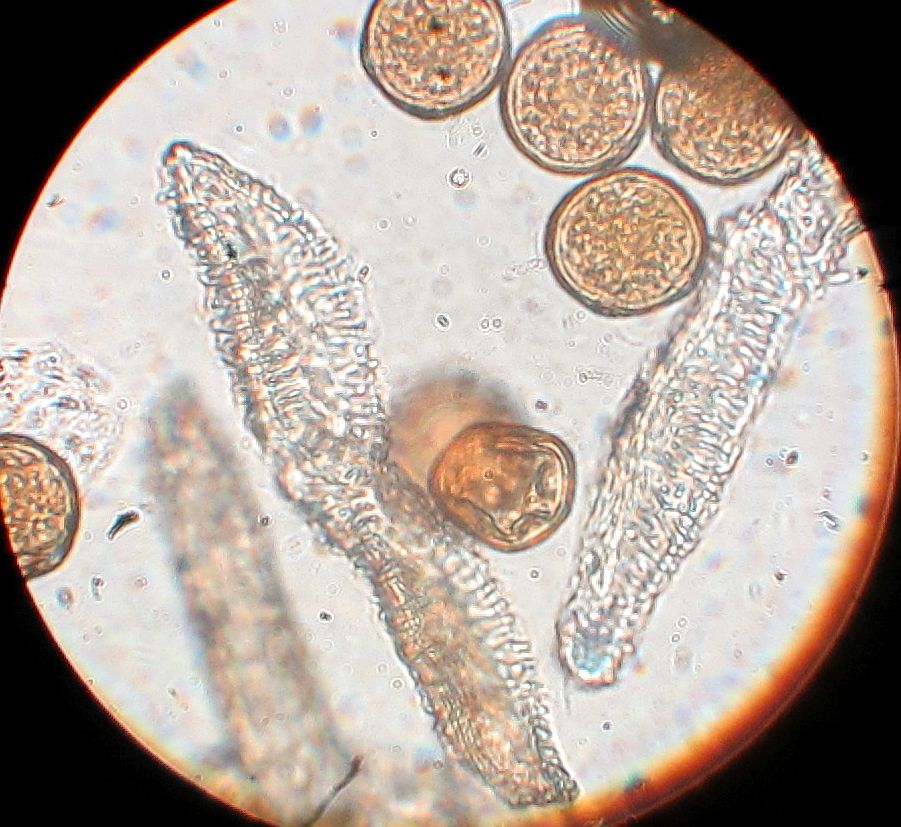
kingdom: Fungi
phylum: Basidiomycota
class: Pucciniomycetes
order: Pucciniales
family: Gymnosporangiaceae
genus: Gymnosporangium
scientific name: Gymnosporangium confusum
